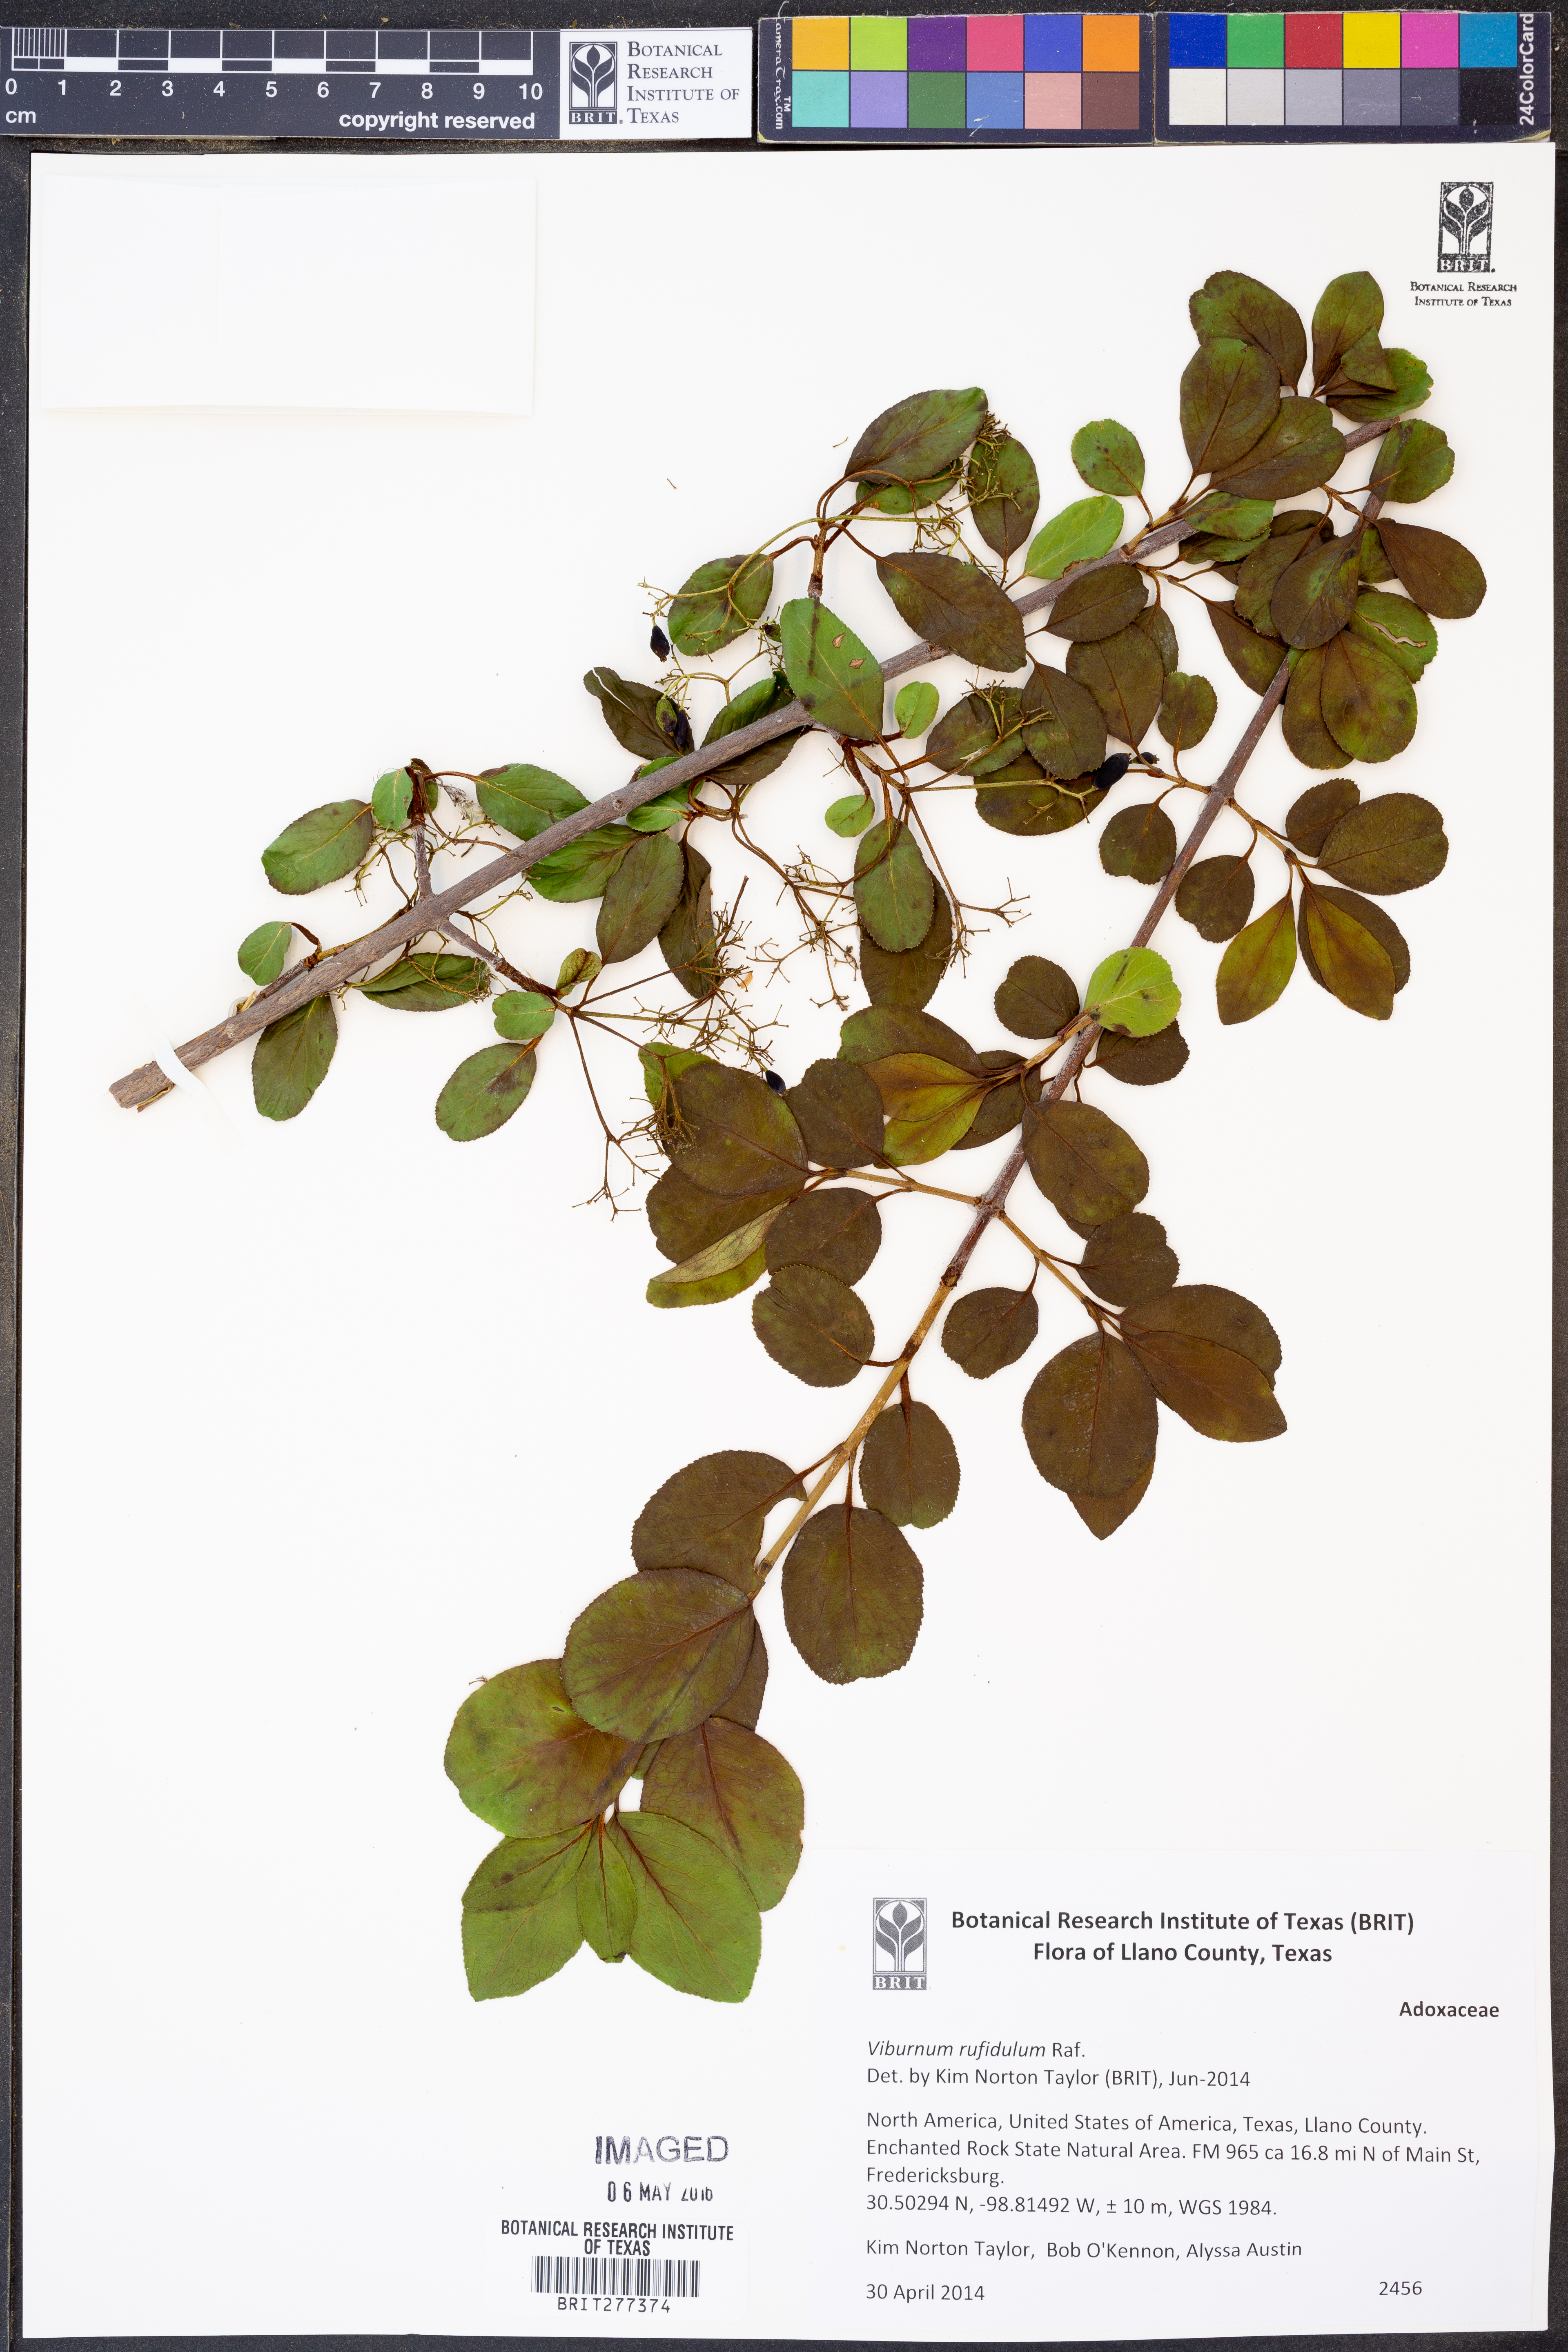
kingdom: Plantae
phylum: Tracheophyta
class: Magnoliopsida
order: Dipsacales
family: Viburnaceae
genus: Viburnum
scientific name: Viburnum rufidulum
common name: Blue haw
